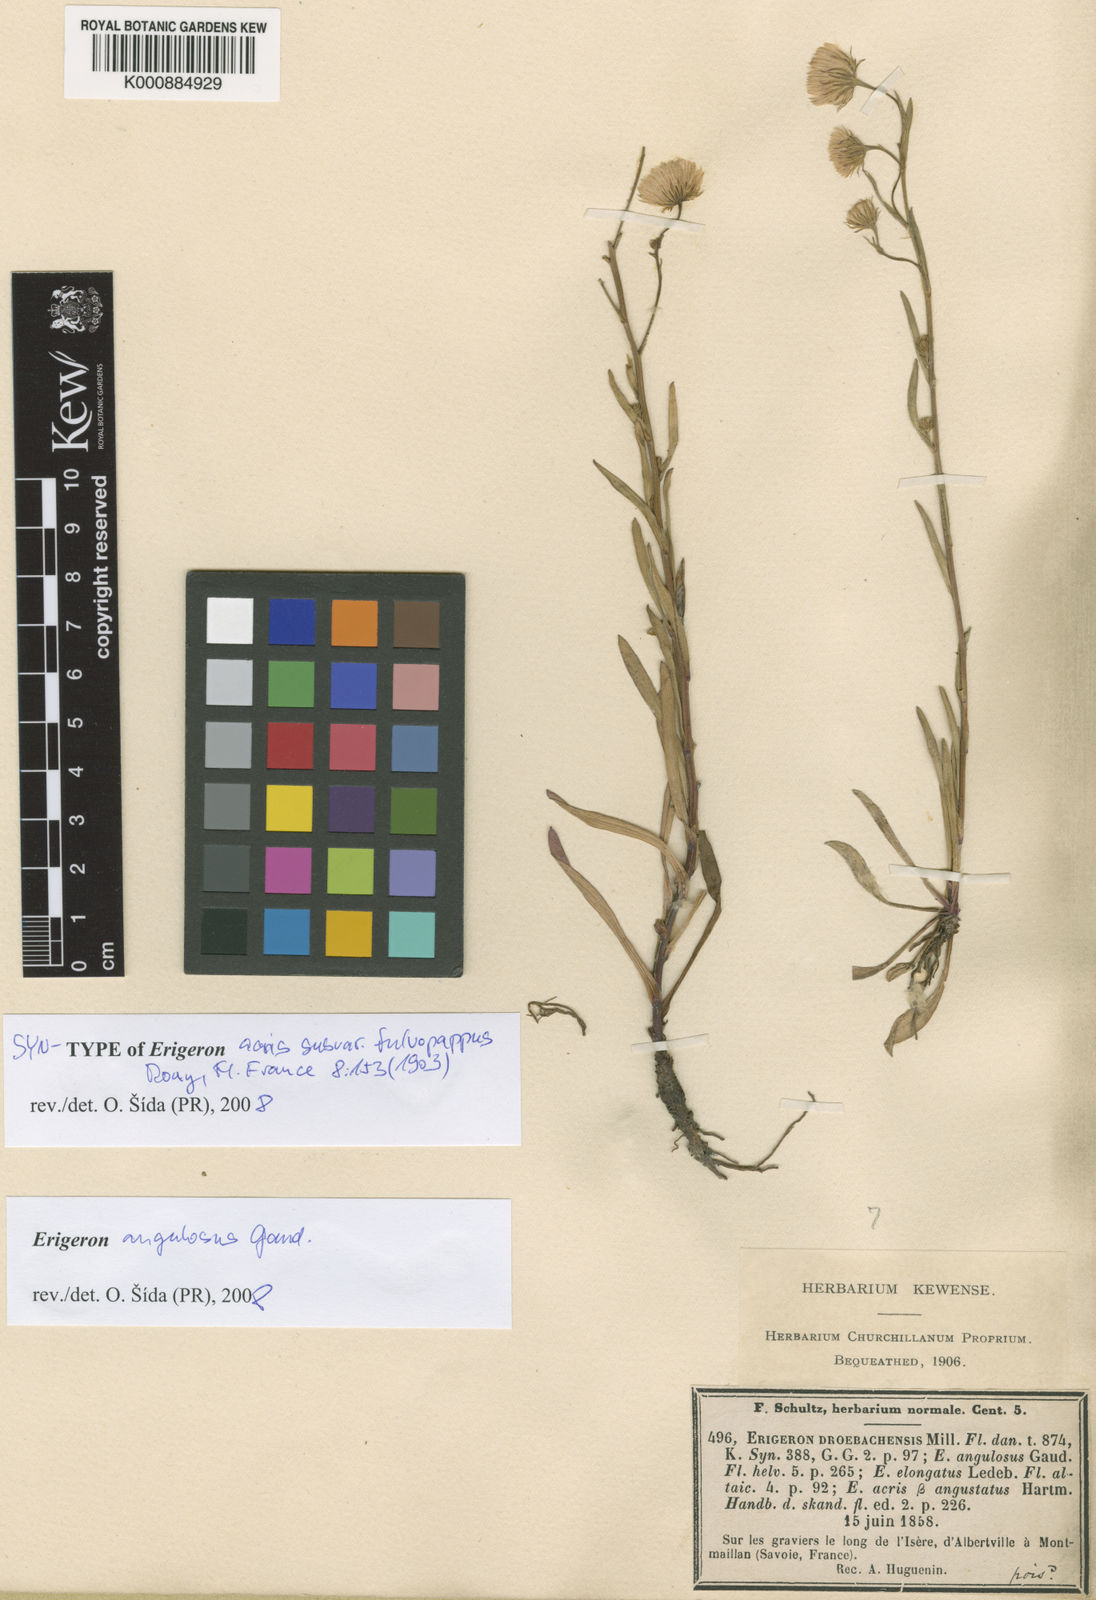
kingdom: Plantae
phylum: Tracheophyta
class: Magnoliopsida
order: Asterales
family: Asteraceae
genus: Erigeron
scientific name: Erigeron
